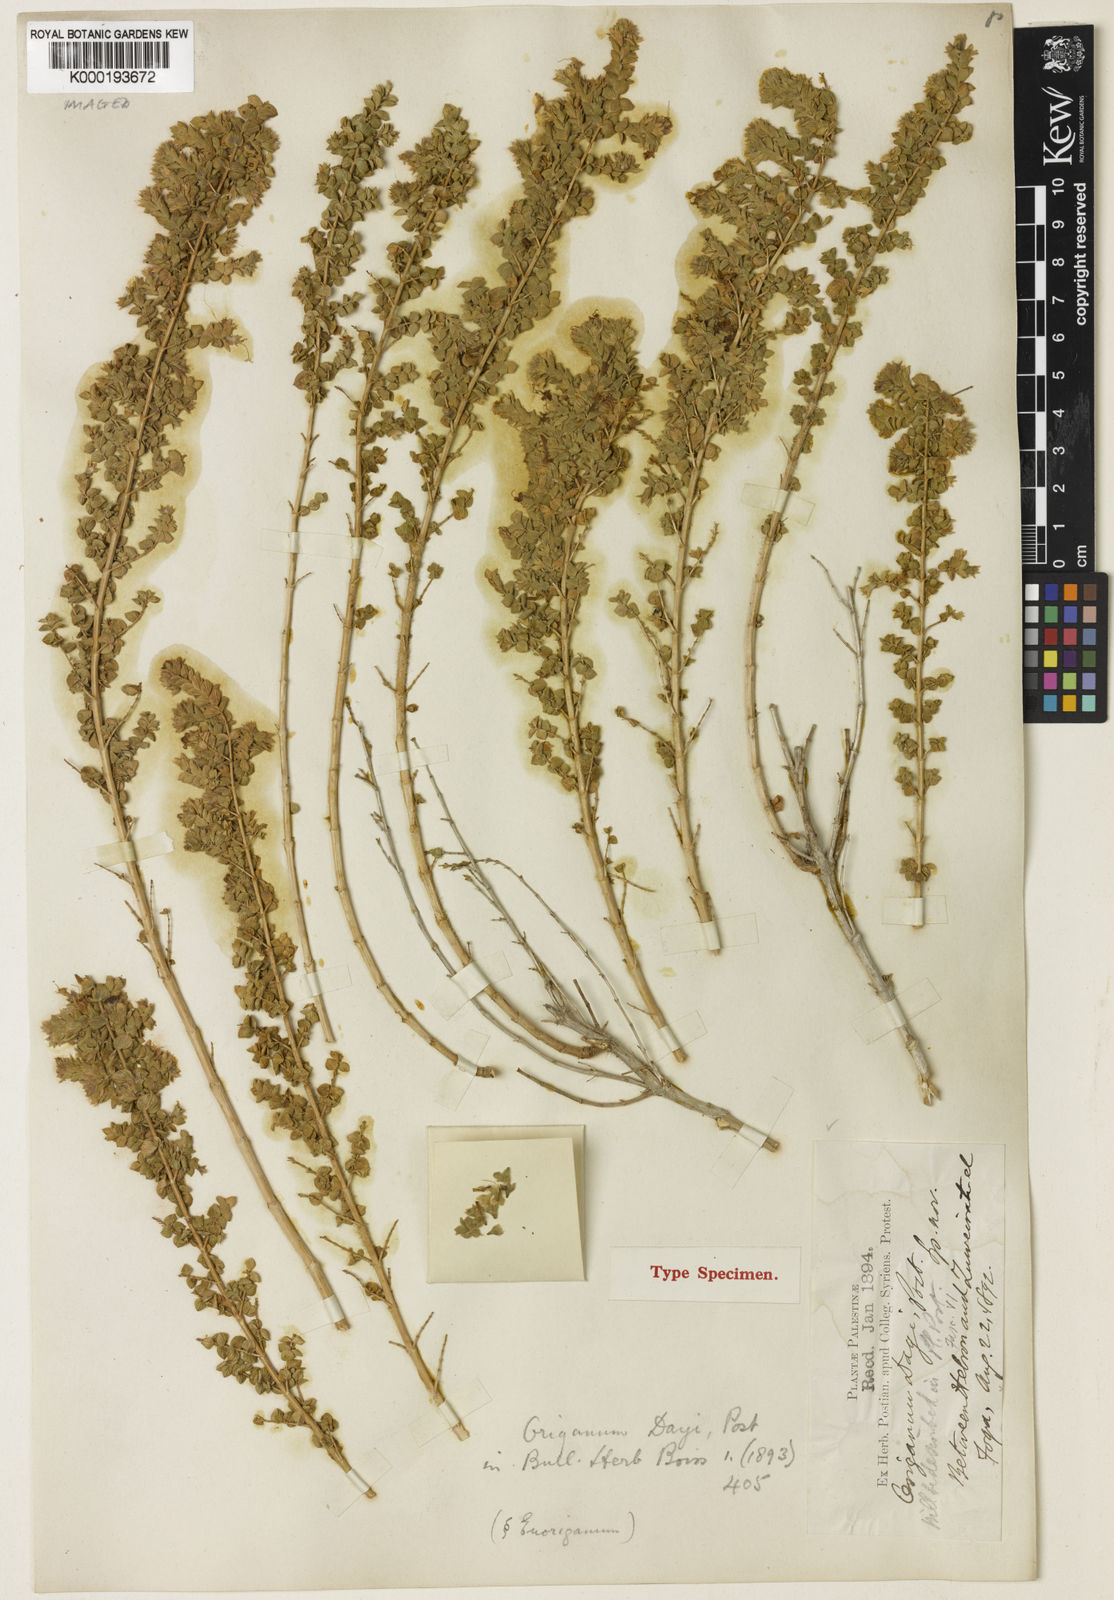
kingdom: Plantae
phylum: Tracheophyta
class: Magnoliopsida
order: Lamiales
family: Lamiaceae
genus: Origanum
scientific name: Origanum dayi
